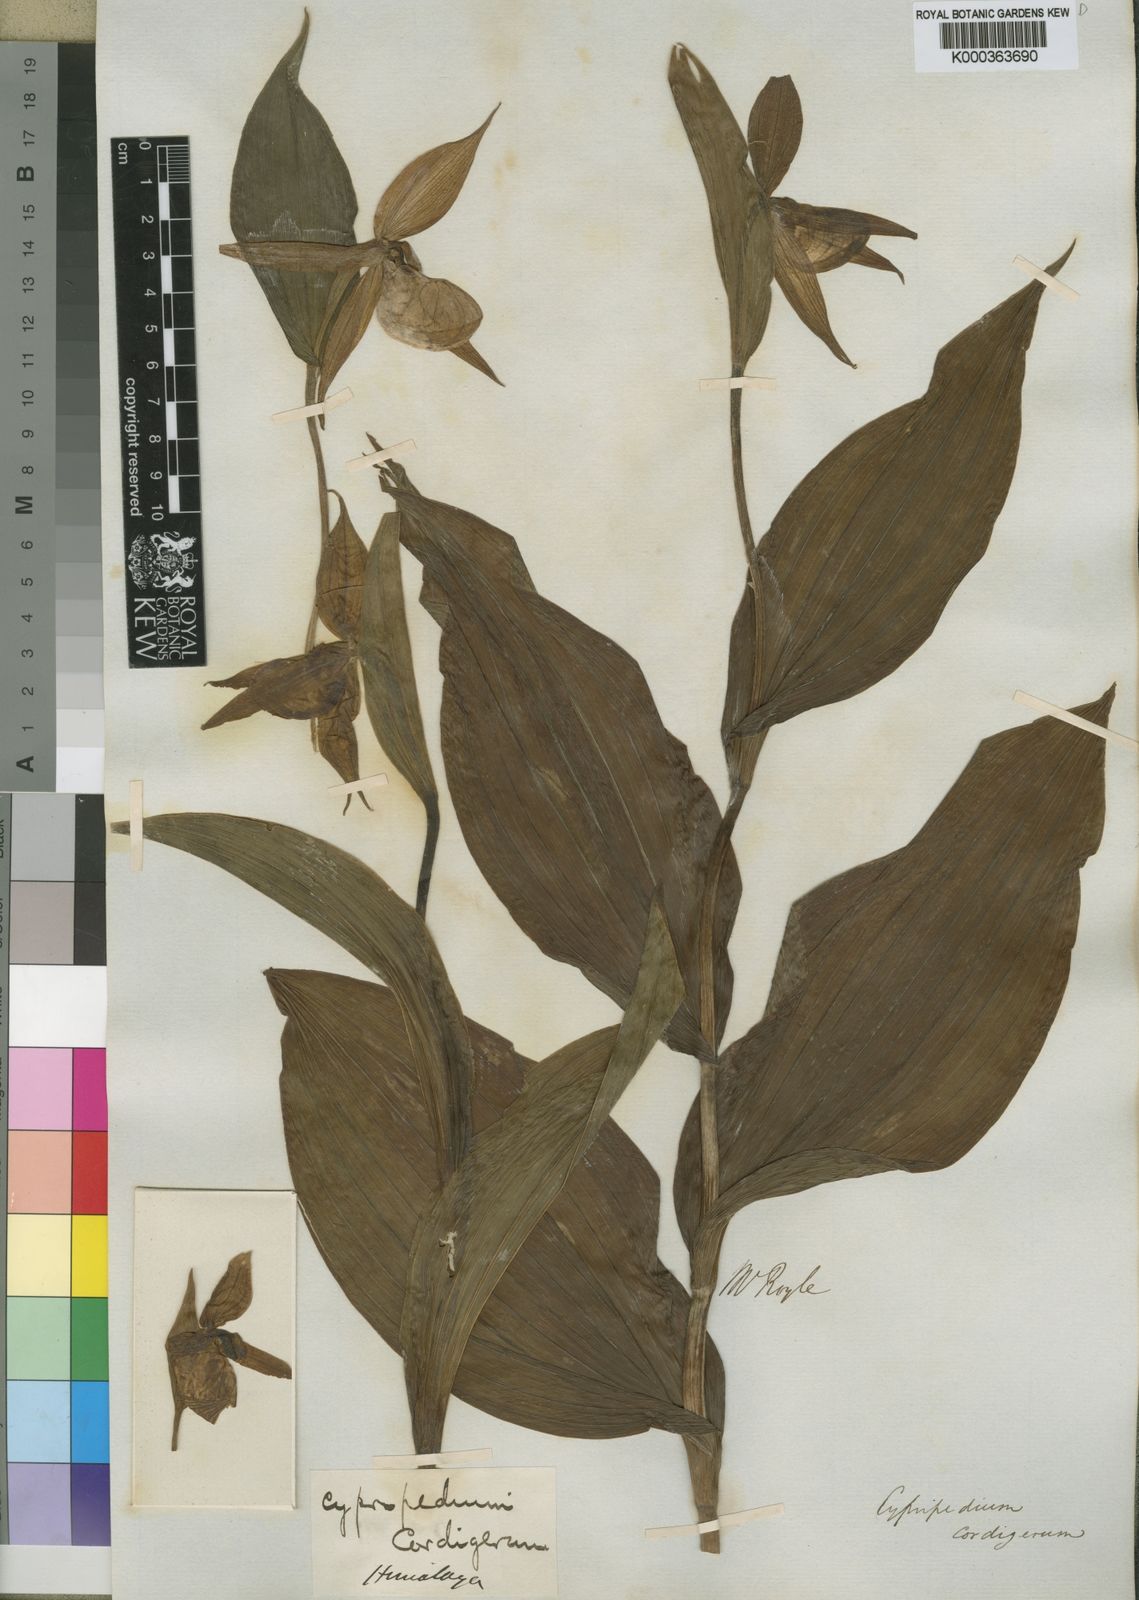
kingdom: Plantae
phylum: Tracheophyta
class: Liliopsida
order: Asparagales
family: Orchidaceae
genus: Cypripedium
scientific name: Cypripedium cordigerum
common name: Heart-shaped lip cypripedium
